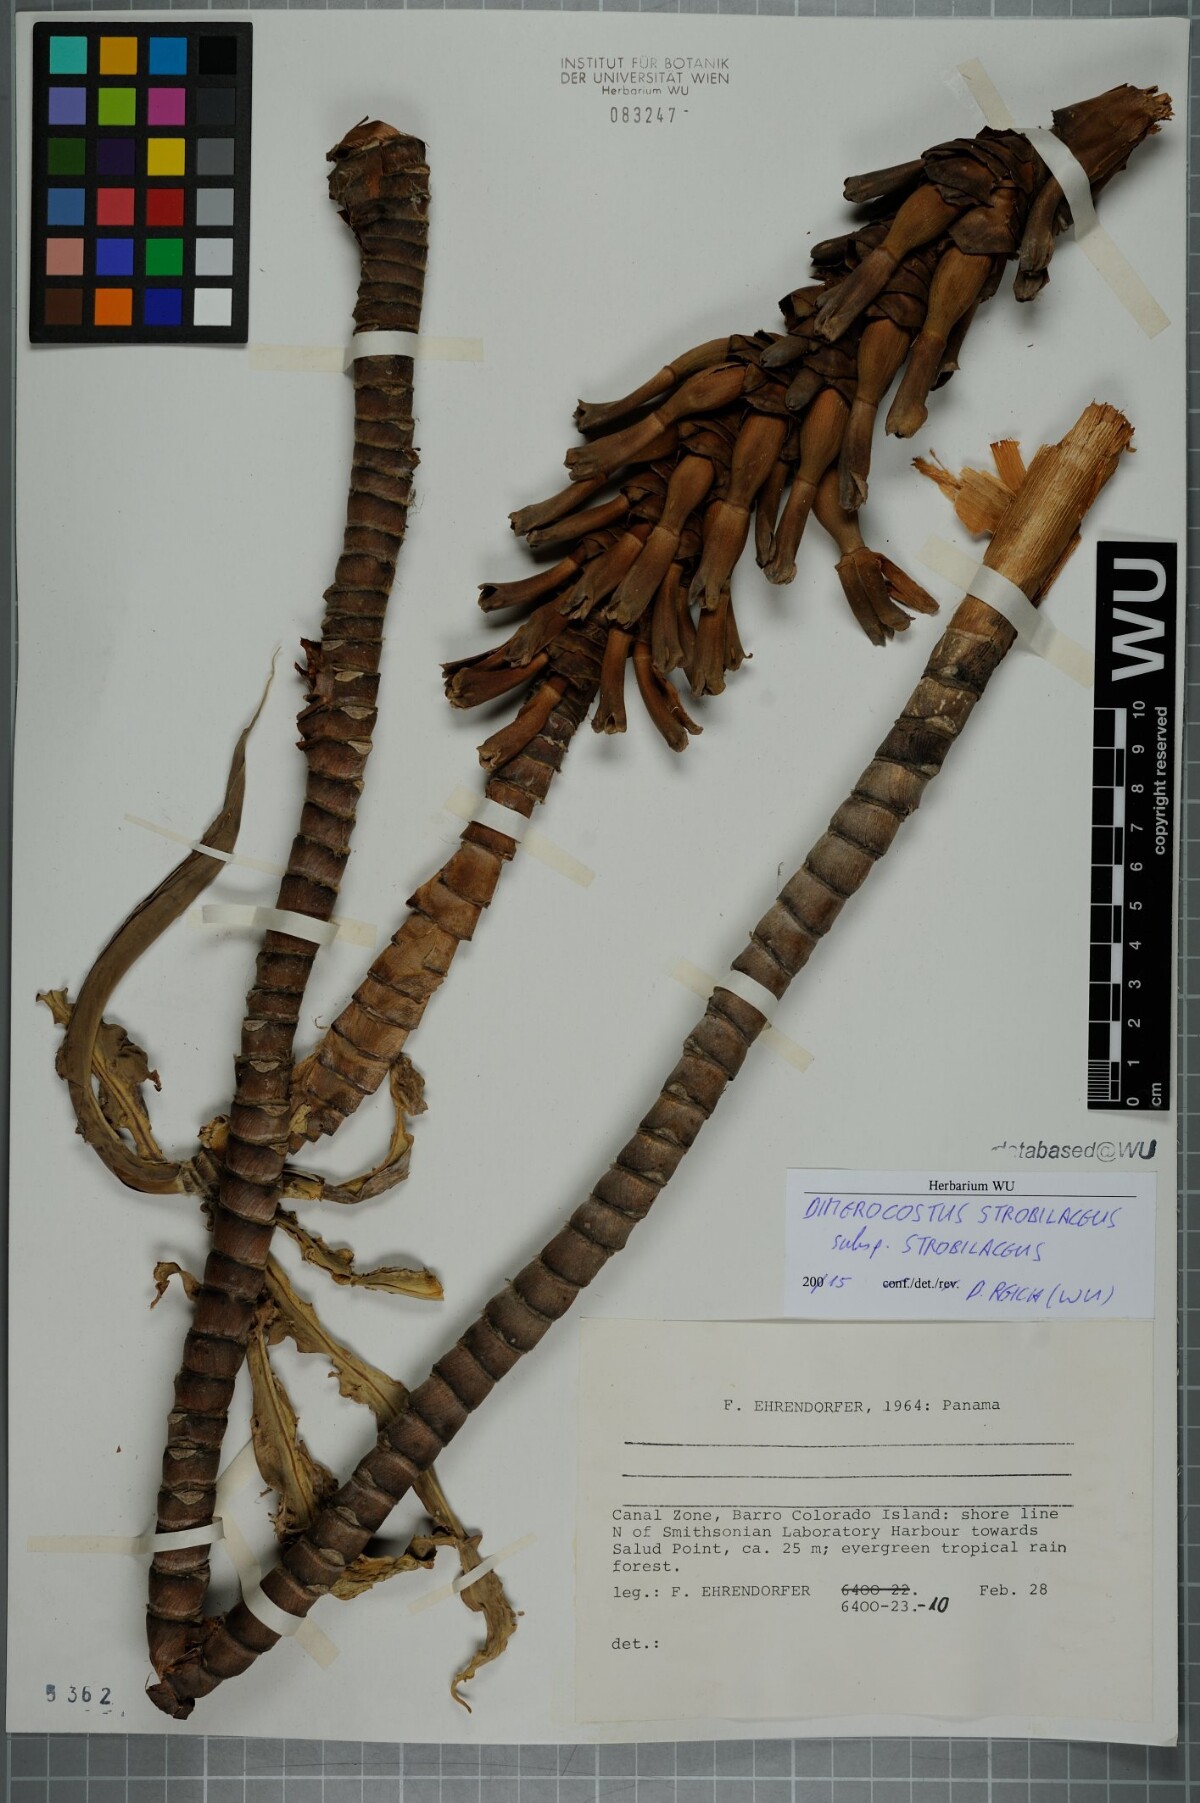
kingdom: Plantae
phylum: Tracheophyta
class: Liliopsida
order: Zingiberales
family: Costaceae
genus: Dimerocostus
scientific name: Dimerocostus strobilaceus
